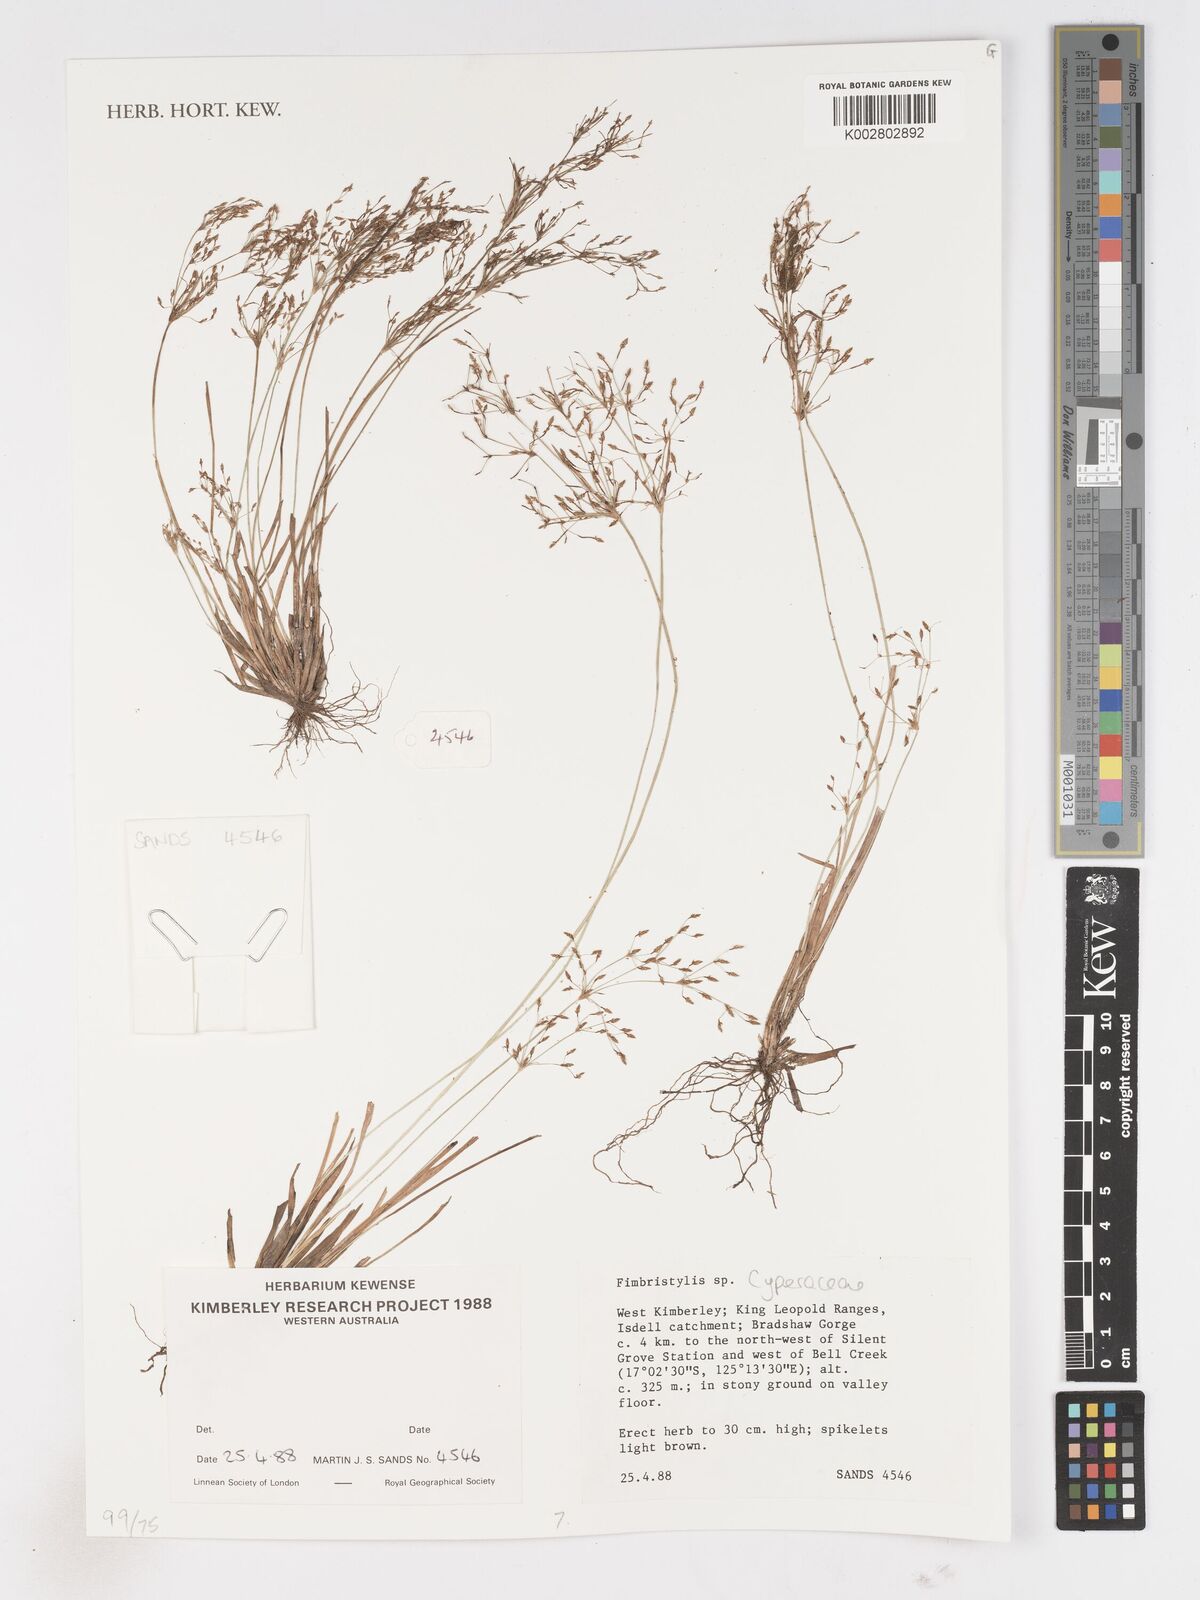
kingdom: Plantae
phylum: Tracheophyta
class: Liliopsida
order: Poales
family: Cyperaceae
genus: Fimbristylis
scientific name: Fimbristylis
